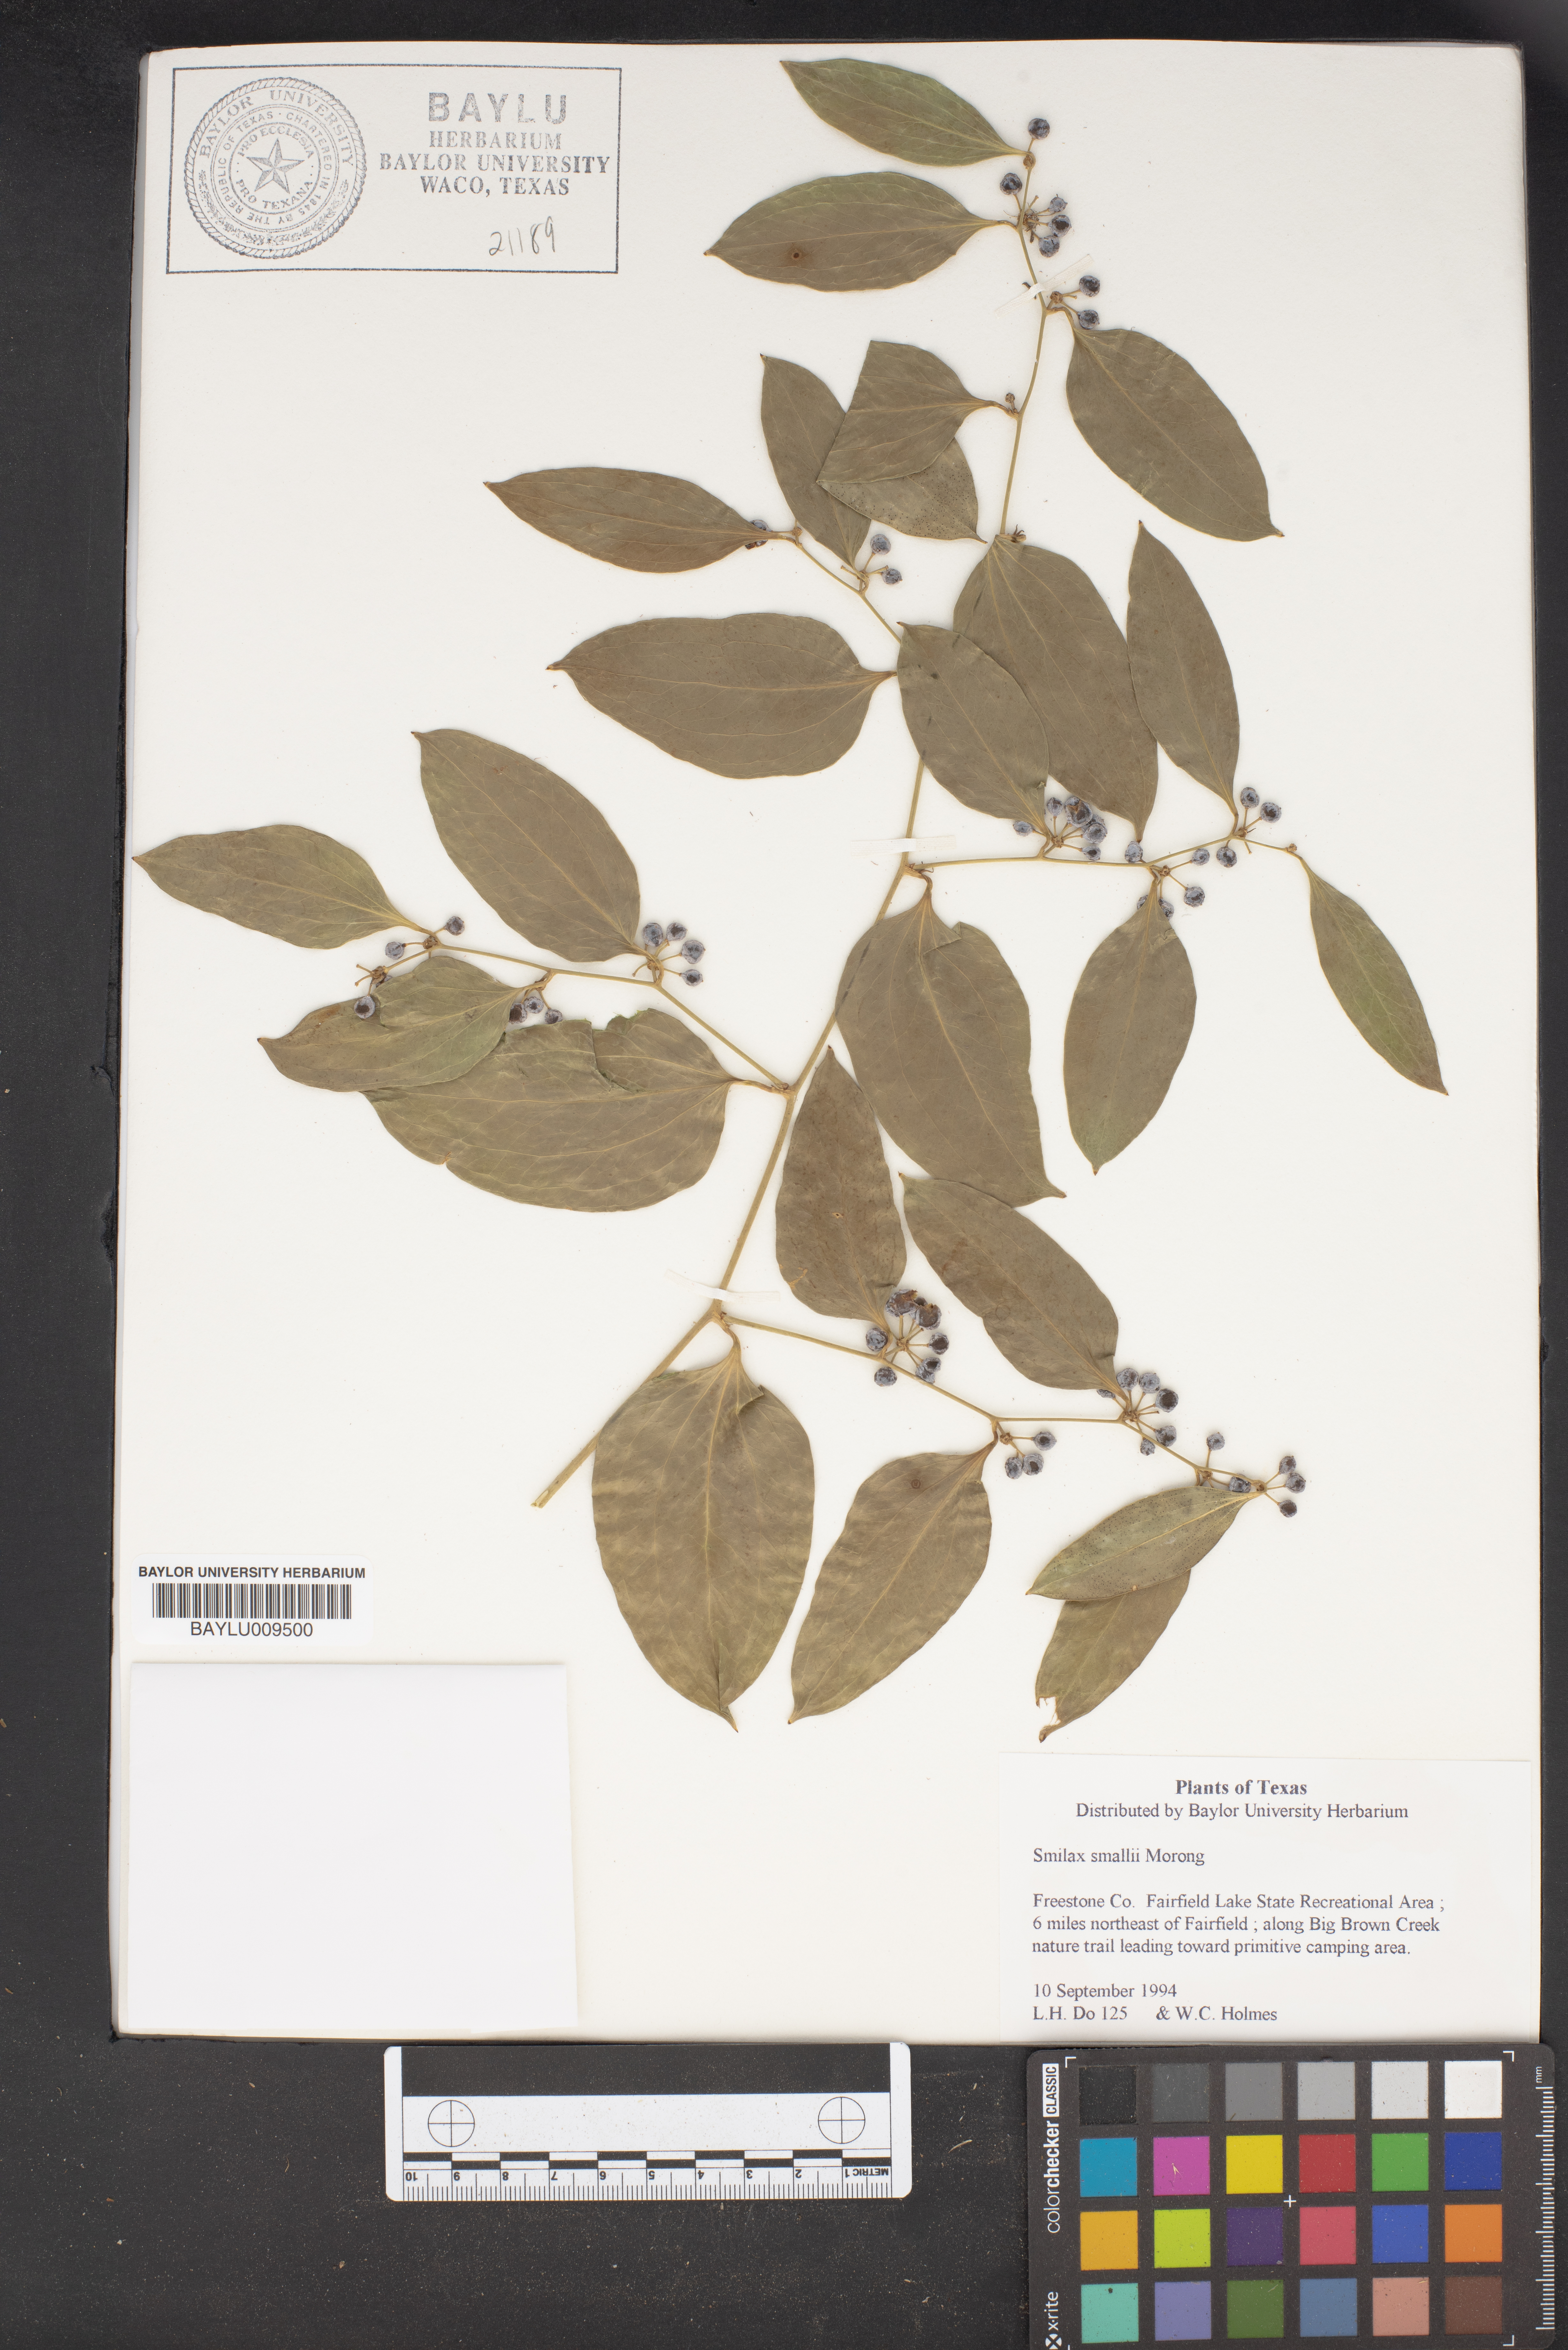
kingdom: Plantae
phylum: Tracheophyta
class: Liliopsida
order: Liliales
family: Smilacaceae
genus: Smilax
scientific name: Smilax maritima
